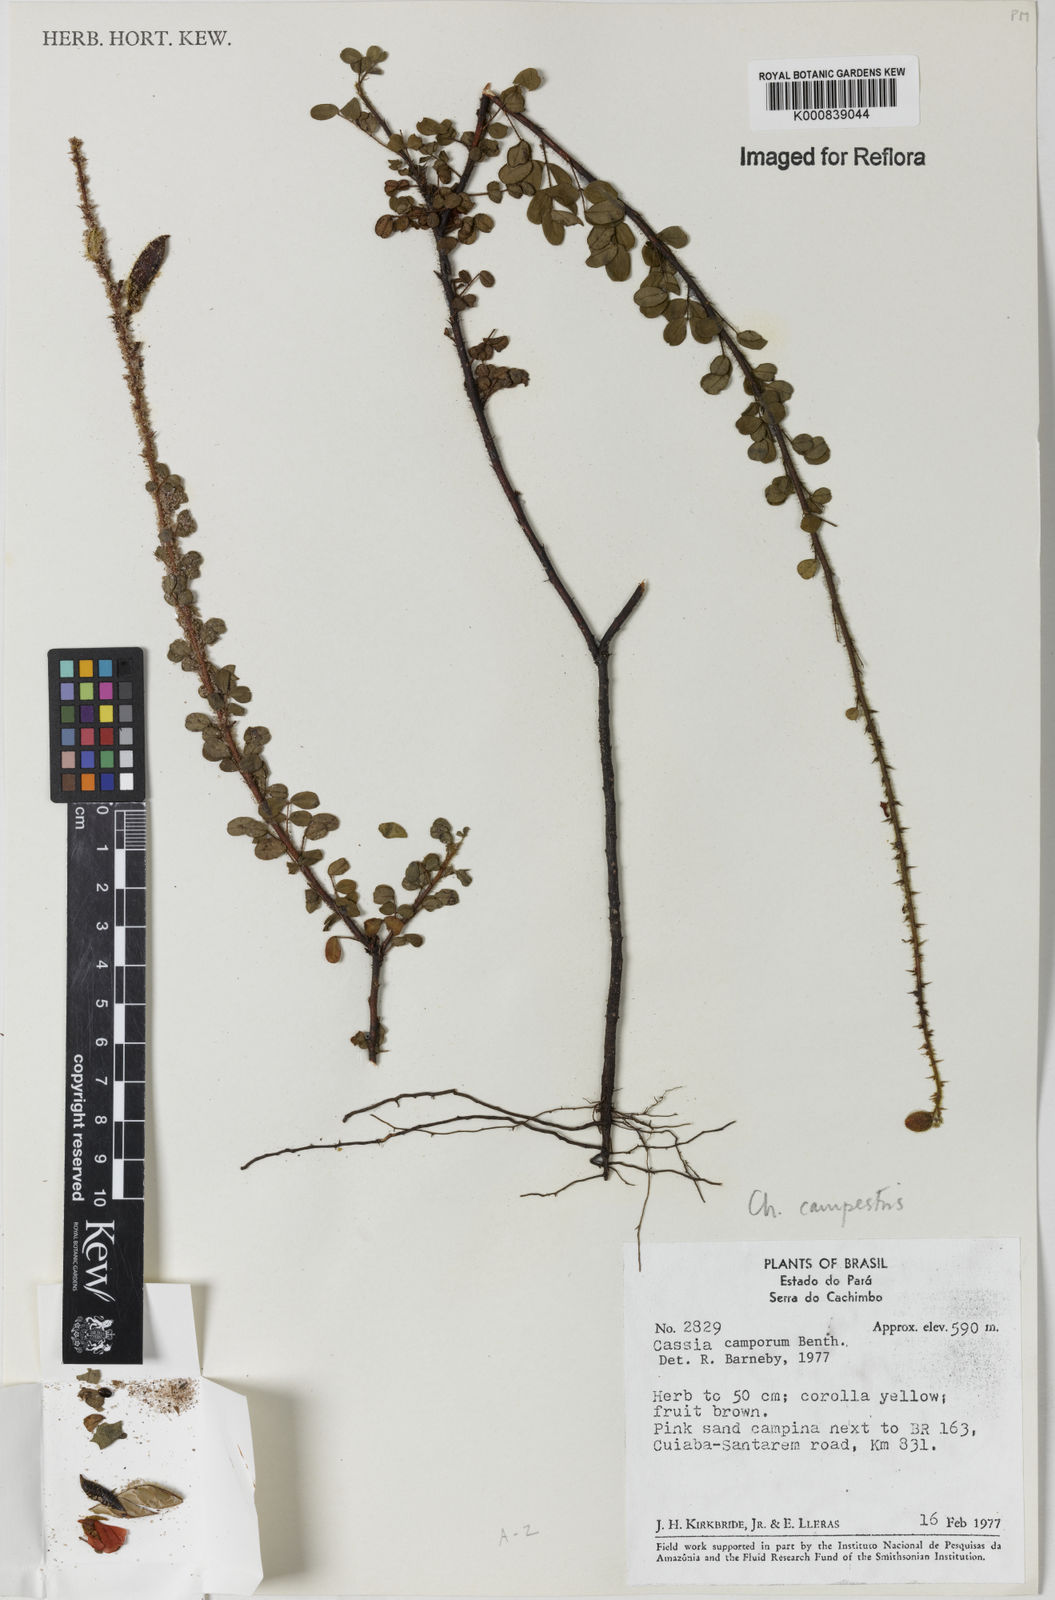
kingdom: Plantae
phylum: Tracheophyta
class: Magnoliopsida
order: Fabales
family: Fabaceae
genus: Chamaecrista
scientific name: Chamaecrista campestris
